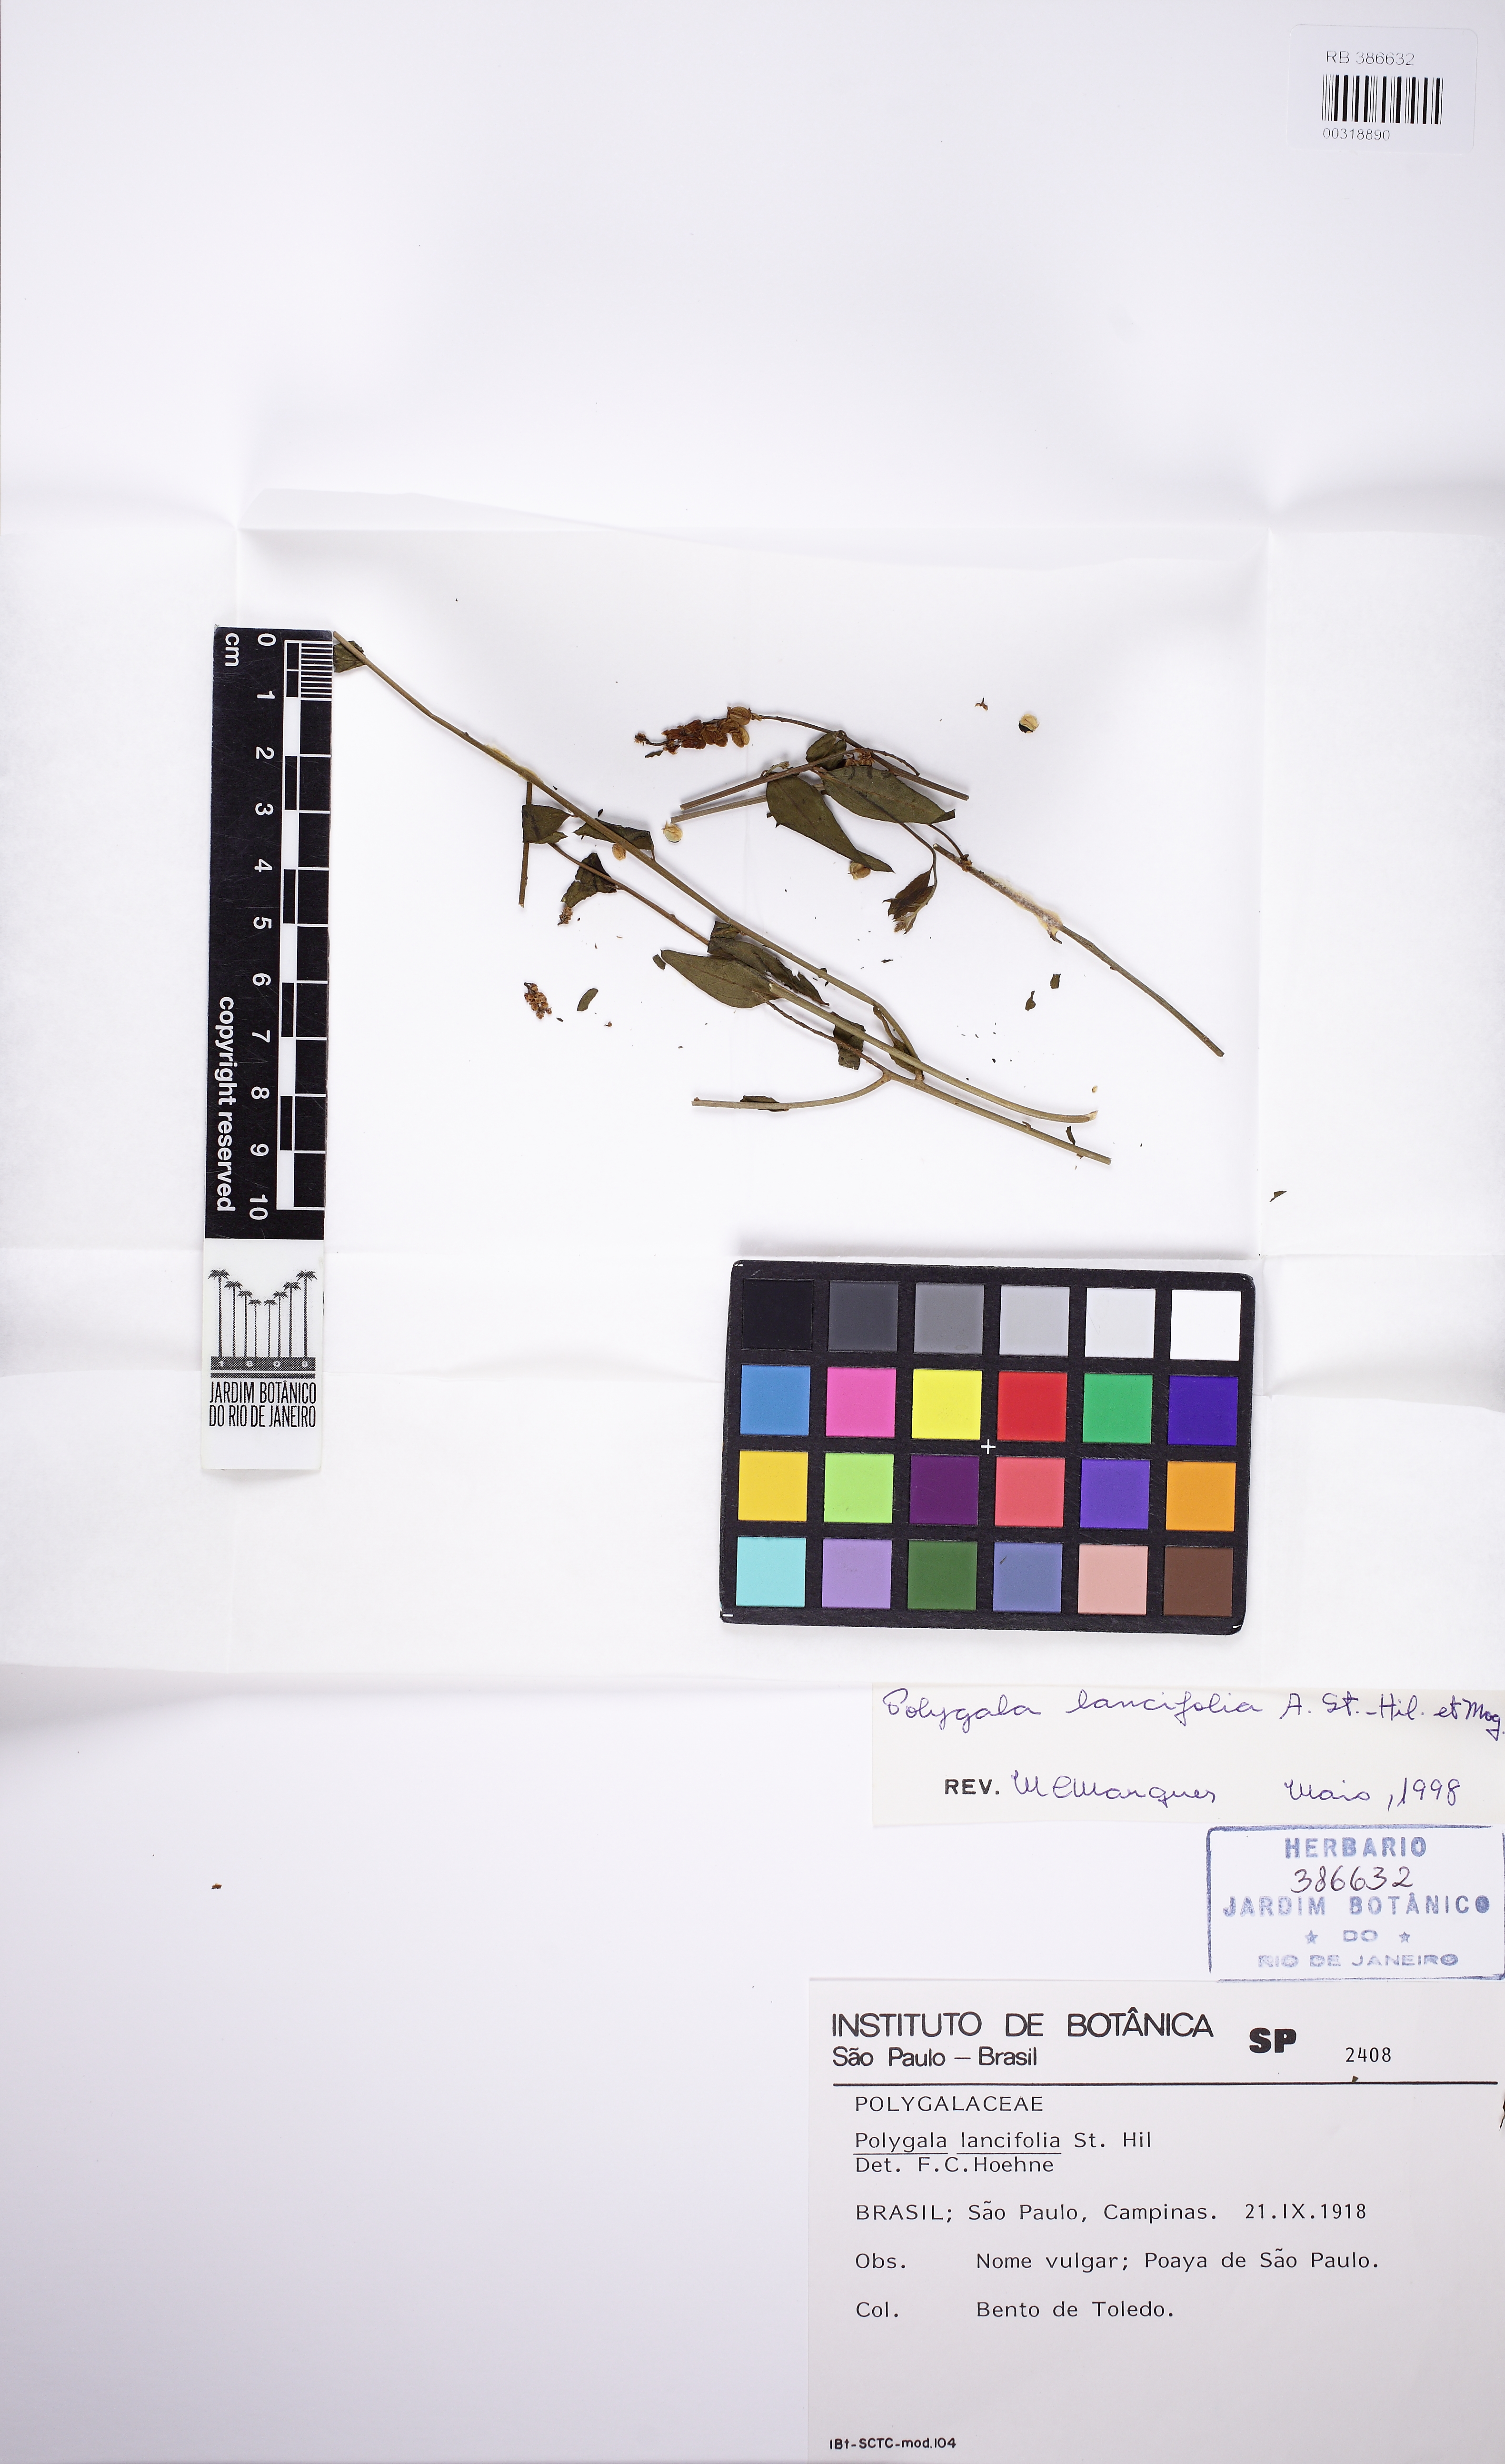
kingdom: Plantae
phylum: Tracheophyta
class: Magnoliopsida
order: Fabales
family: Polygalaceae
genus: Polygala
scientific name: Polygala lancifolia
